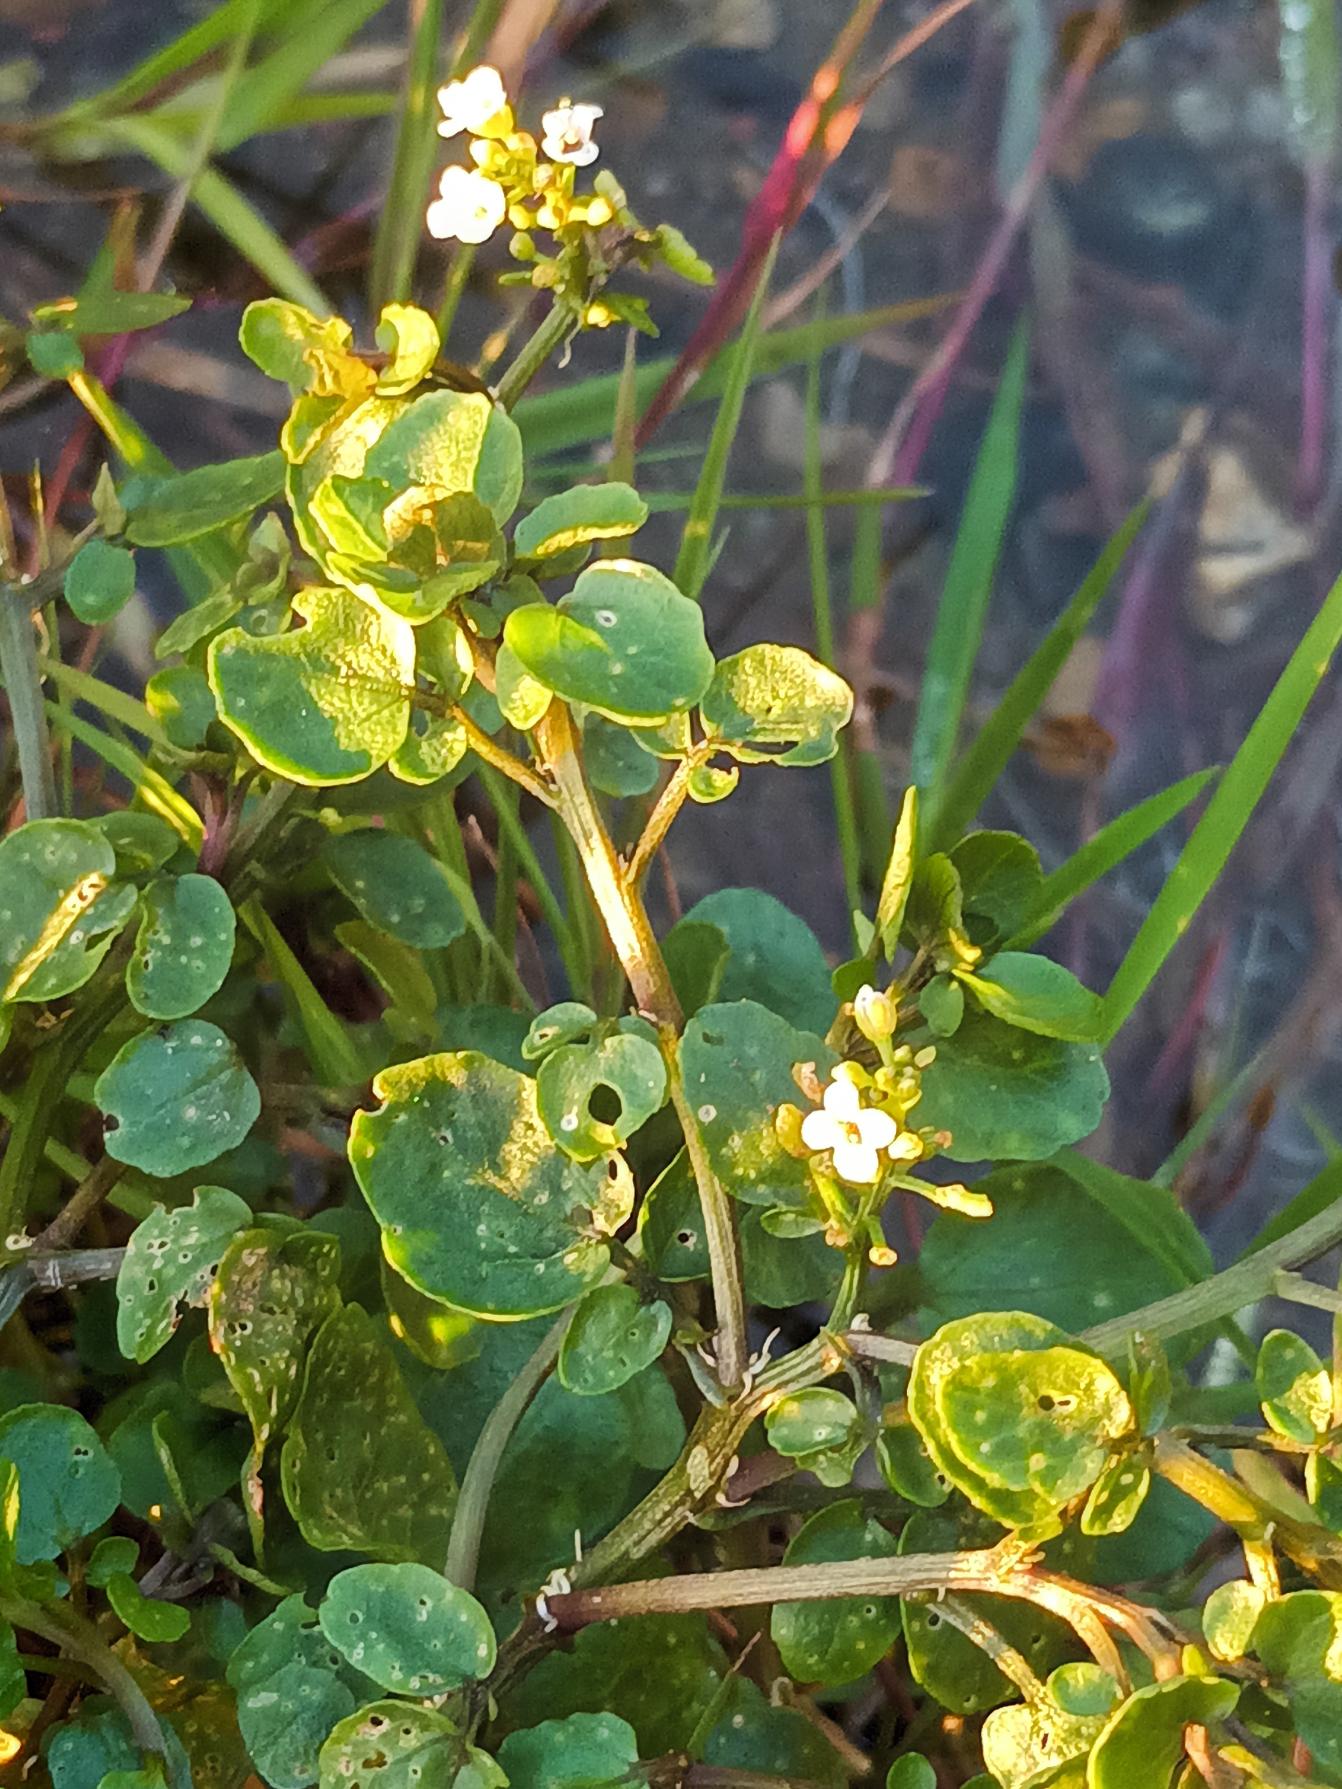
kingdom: Plantae
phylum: Tracheophyta
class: Magnoliopsida
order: Brassicales
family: Brassicaceae
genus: Nasturtium
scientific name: Nasturtium officinale
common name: Tykskulpet brøndkarse
